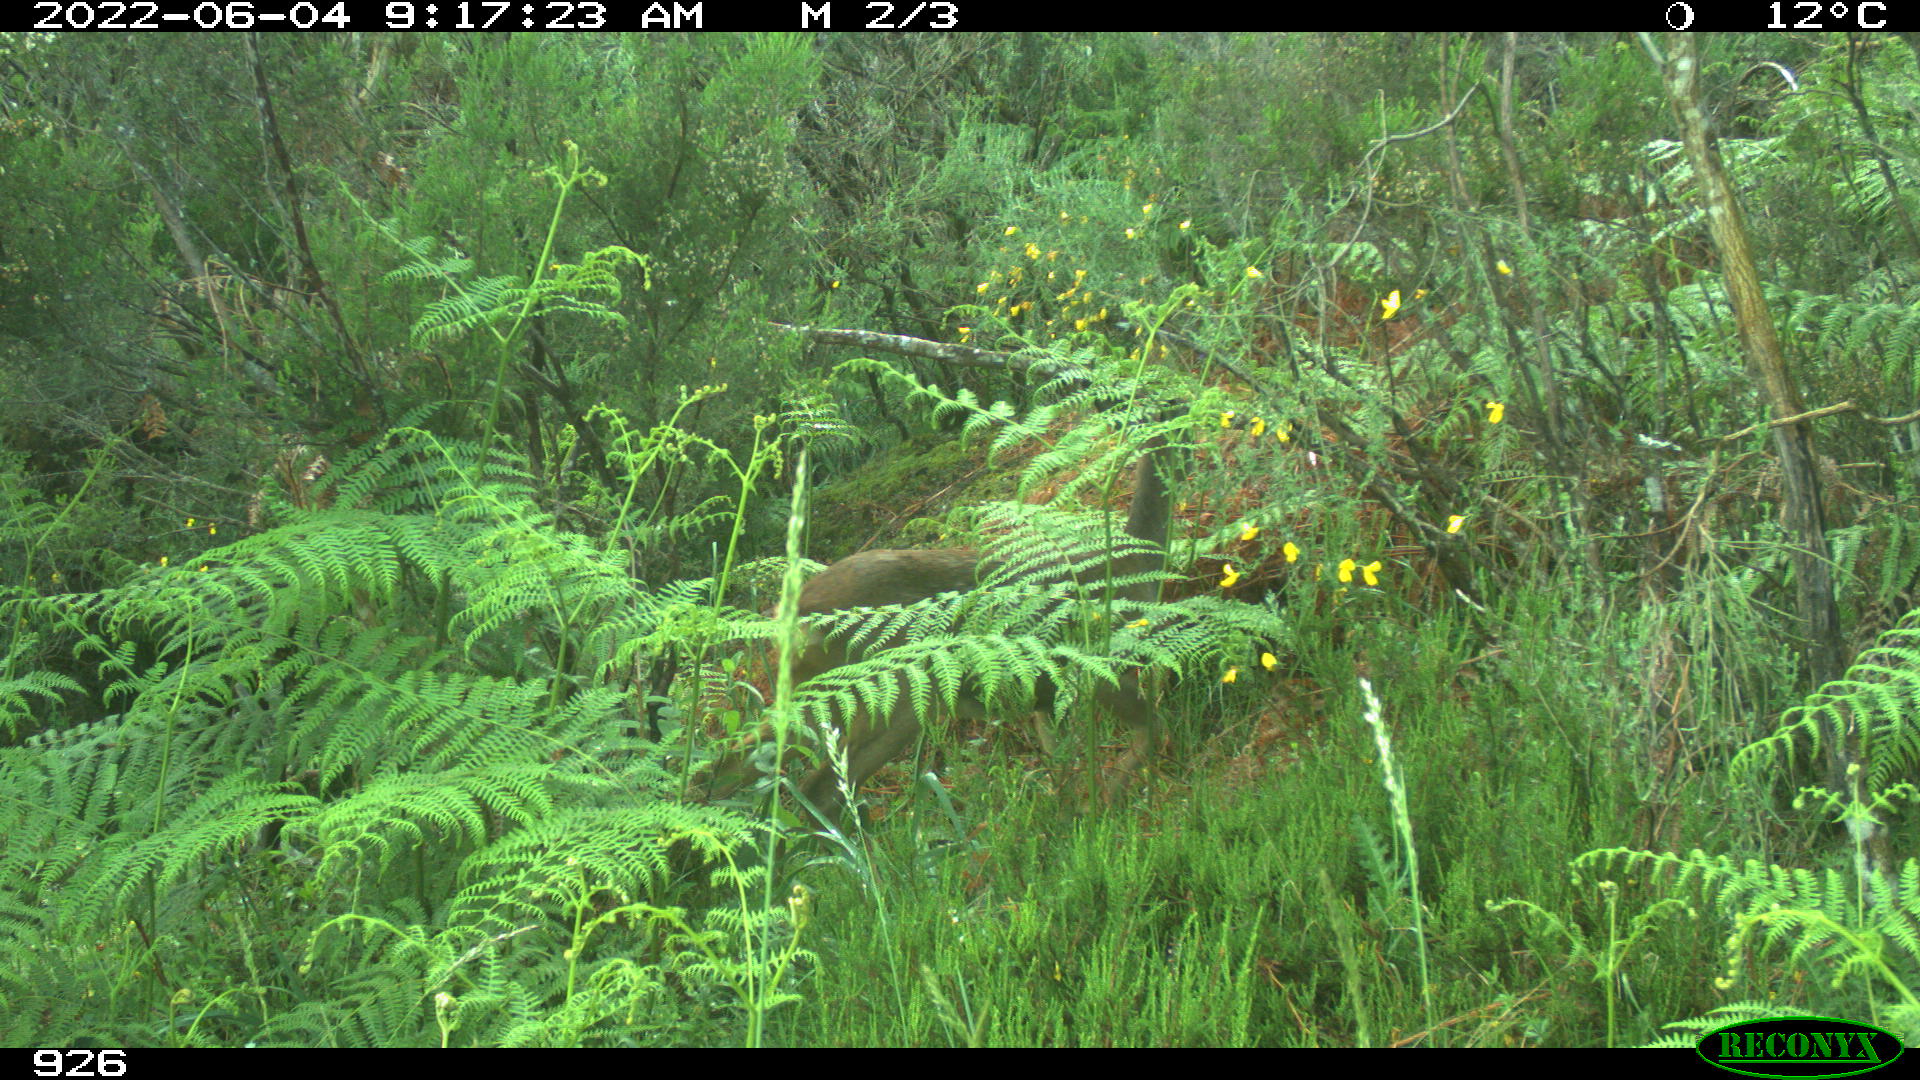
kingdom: Animalia
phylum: Chordata
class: Mammalia
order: Artiodactyla
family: Cervidae
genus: Capreolus
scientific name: Capreolus capreolus
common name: Western roe deer
